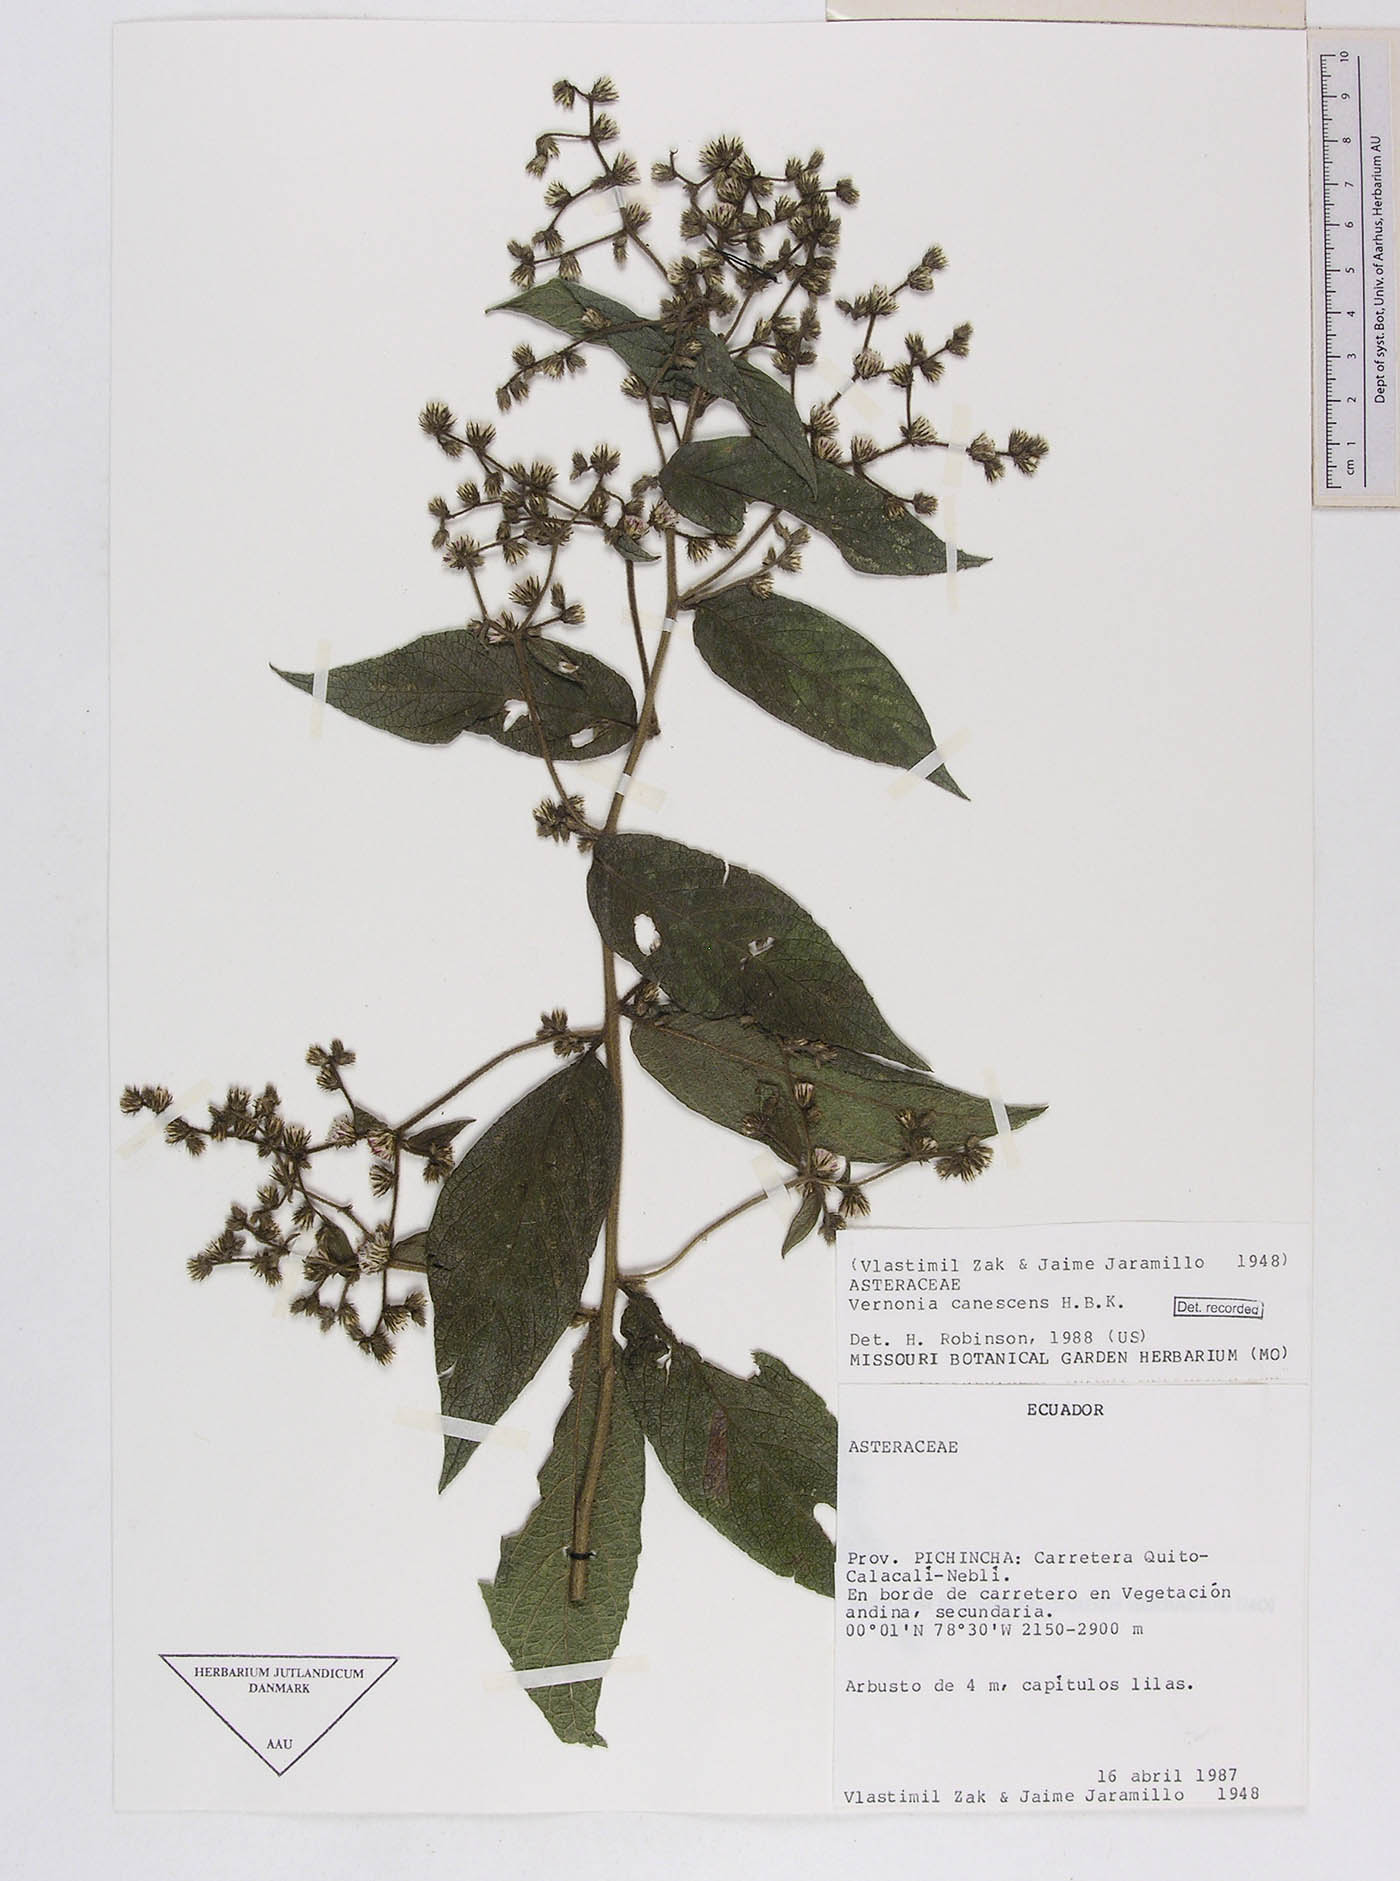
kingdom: Plantae
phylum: Tracheophyta
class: Magnoliopsida
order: Asterales
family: Asteraceae
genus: Lepidaploa
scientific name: Lepidaploa canescens
